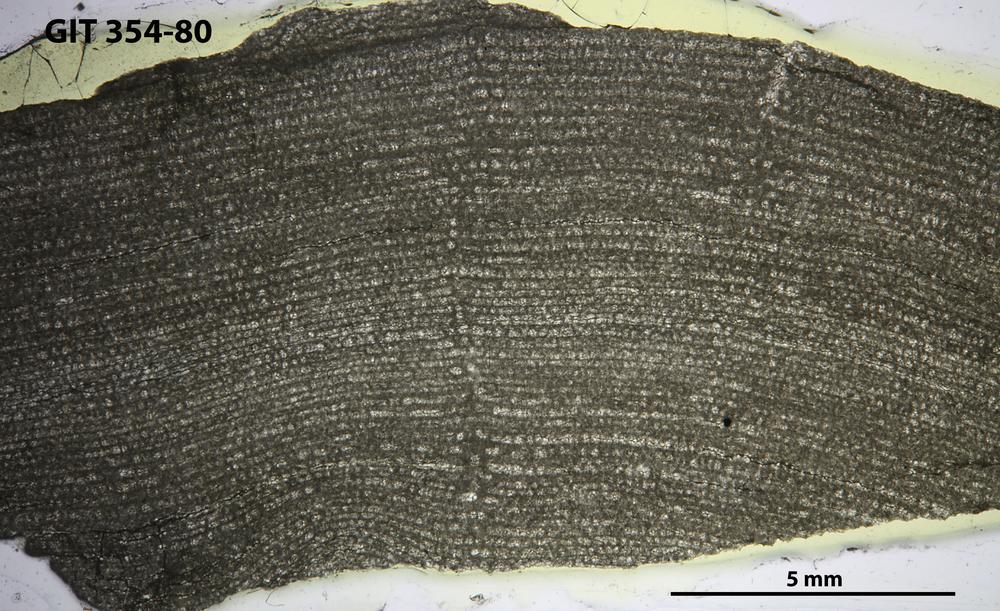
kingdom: Animalia
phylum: Porifera
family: Clathrodictyidae
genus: Clathrodictyon
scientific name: Clathrodictyon
